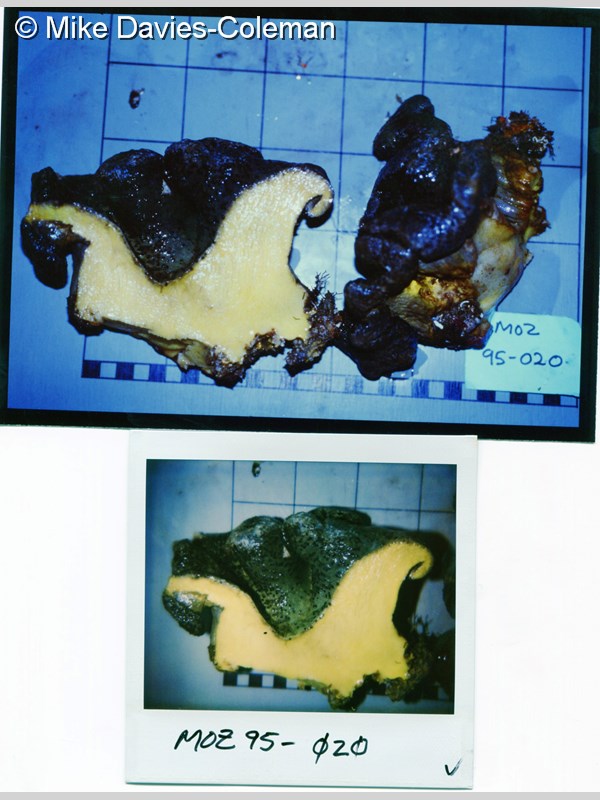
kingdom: Animalia
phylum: Cnidaria
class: Anthozoa
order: Malacalcyonacea
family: Sarcophytidae
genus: Sarcophyton
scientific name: Sarcophyton trocheliophorum
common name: Elephant ear coral
